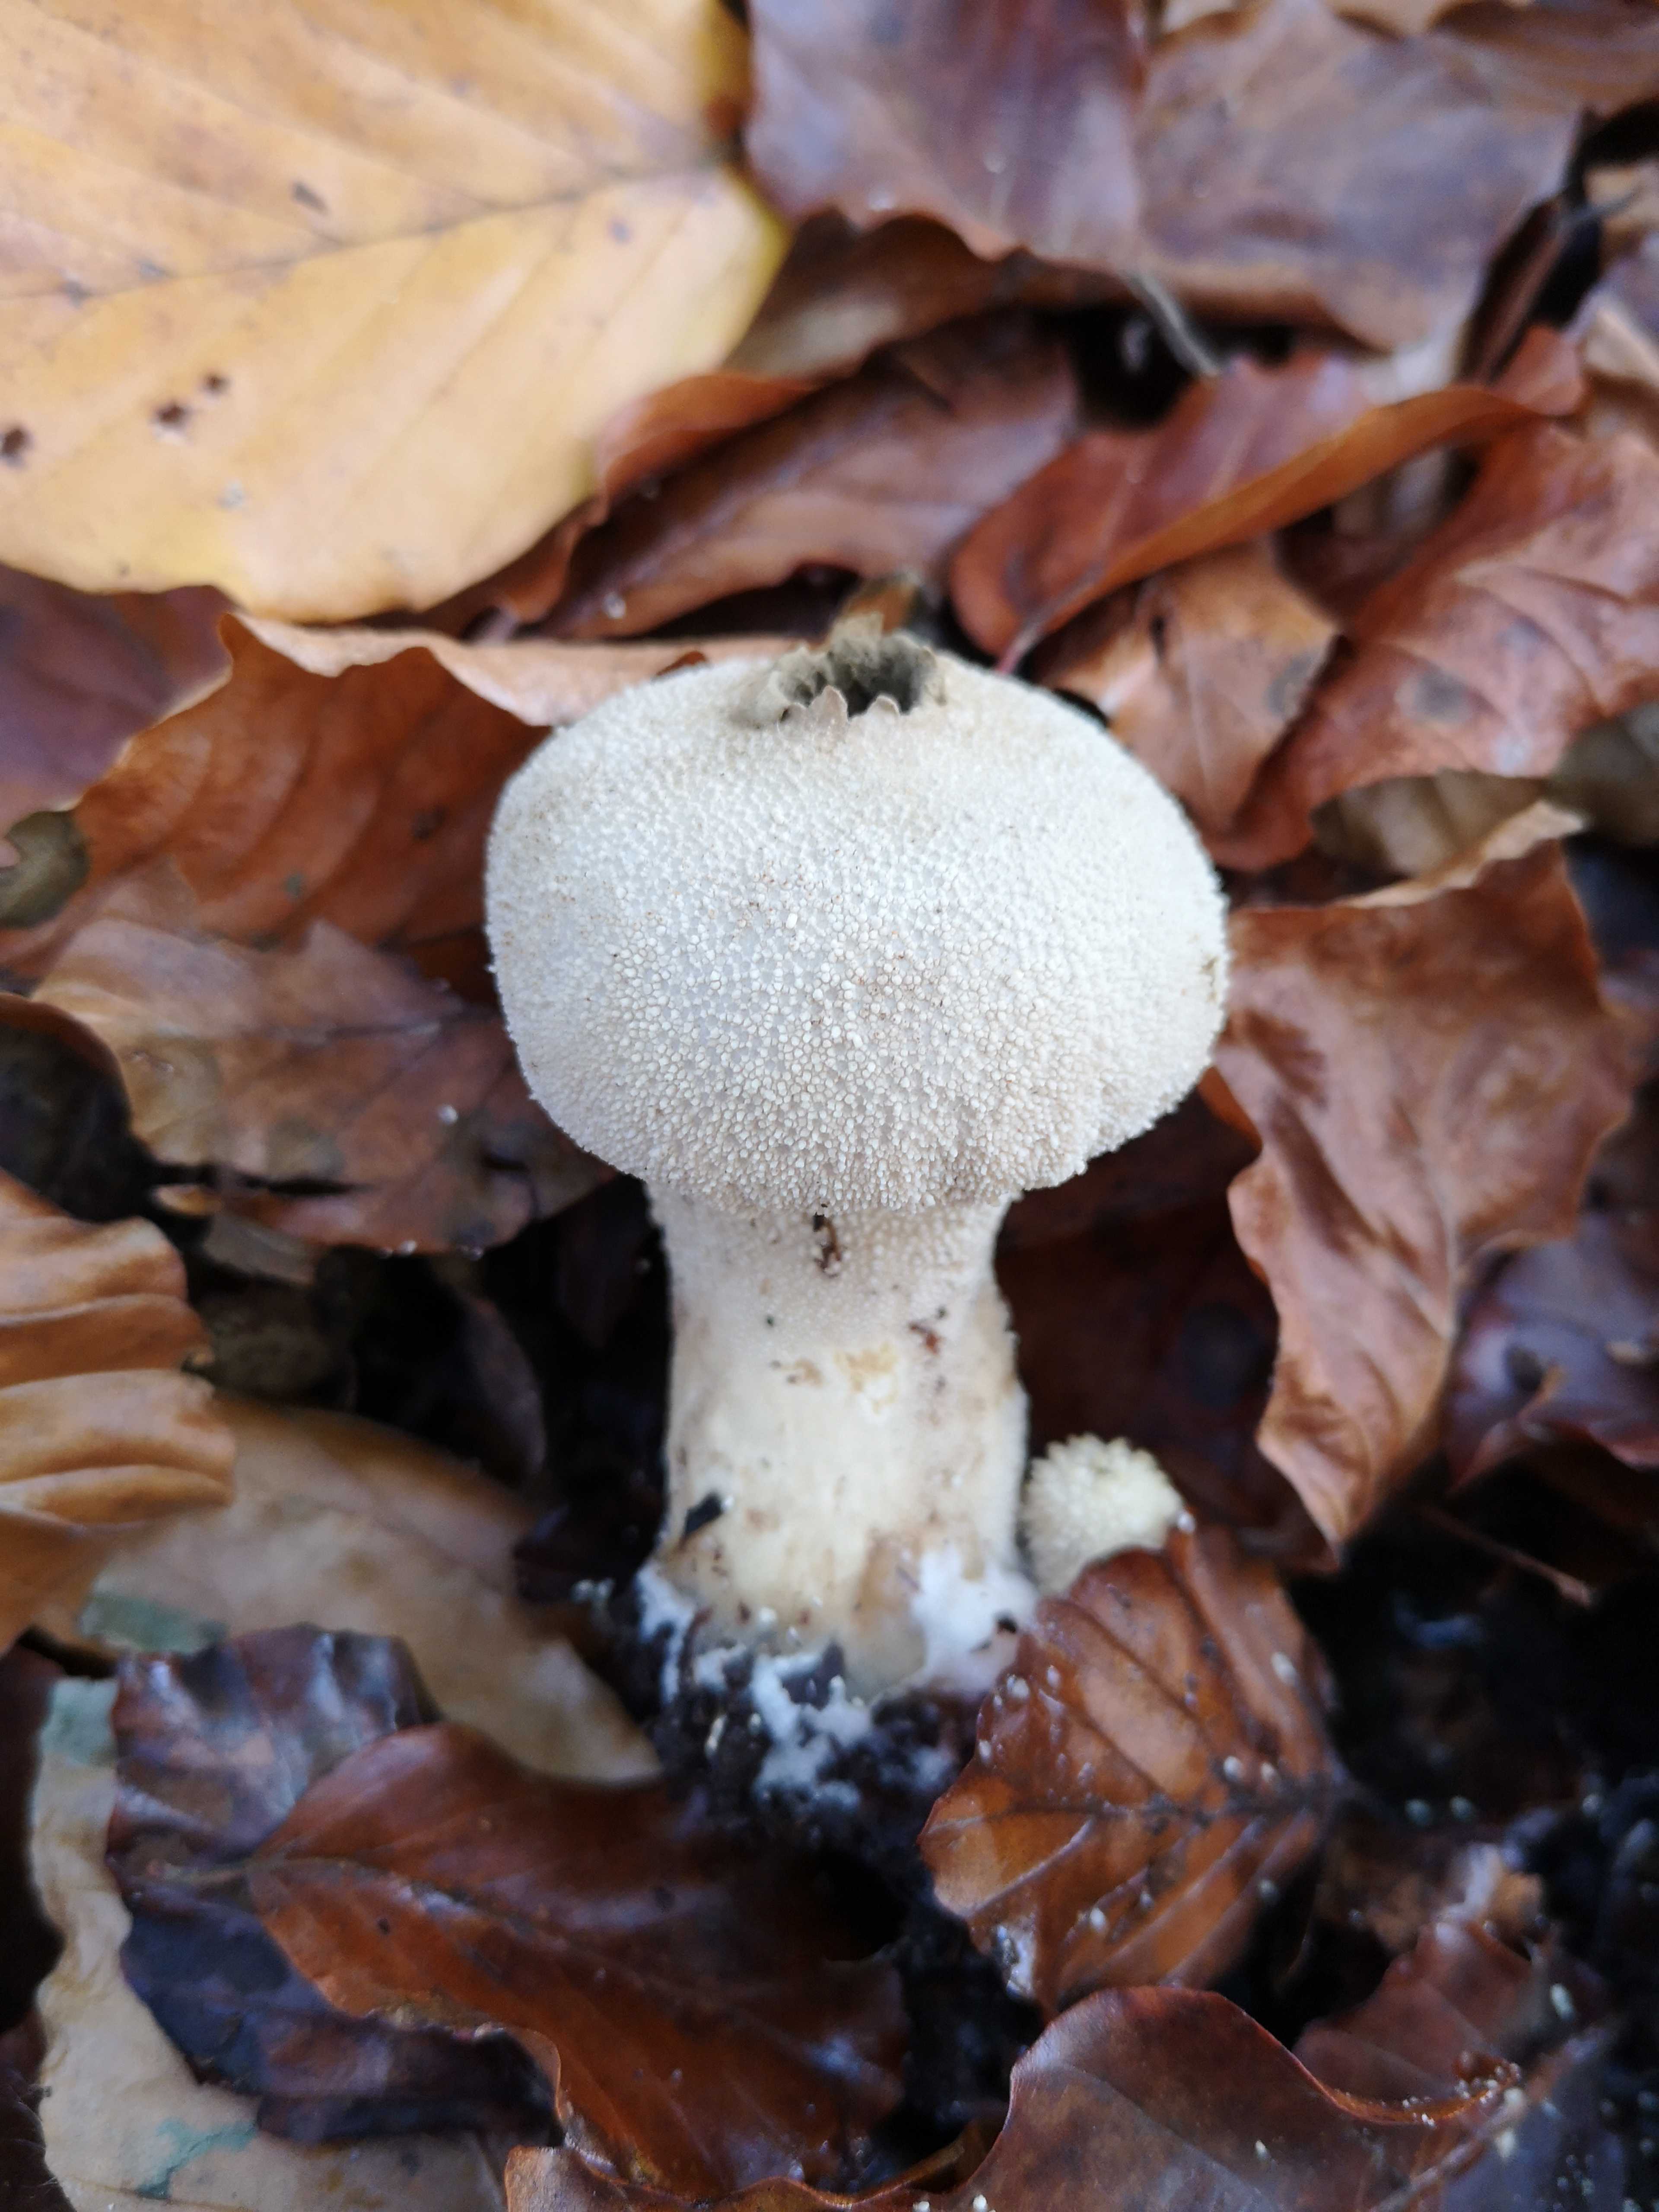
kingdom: Fungi
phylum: Basidiomycota
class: Agaricomycetes
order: Agaricales
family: Lycoperdaceae
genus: Lycoperdon
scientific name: Lycoperdon perlatum
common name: krystal-støvbold
